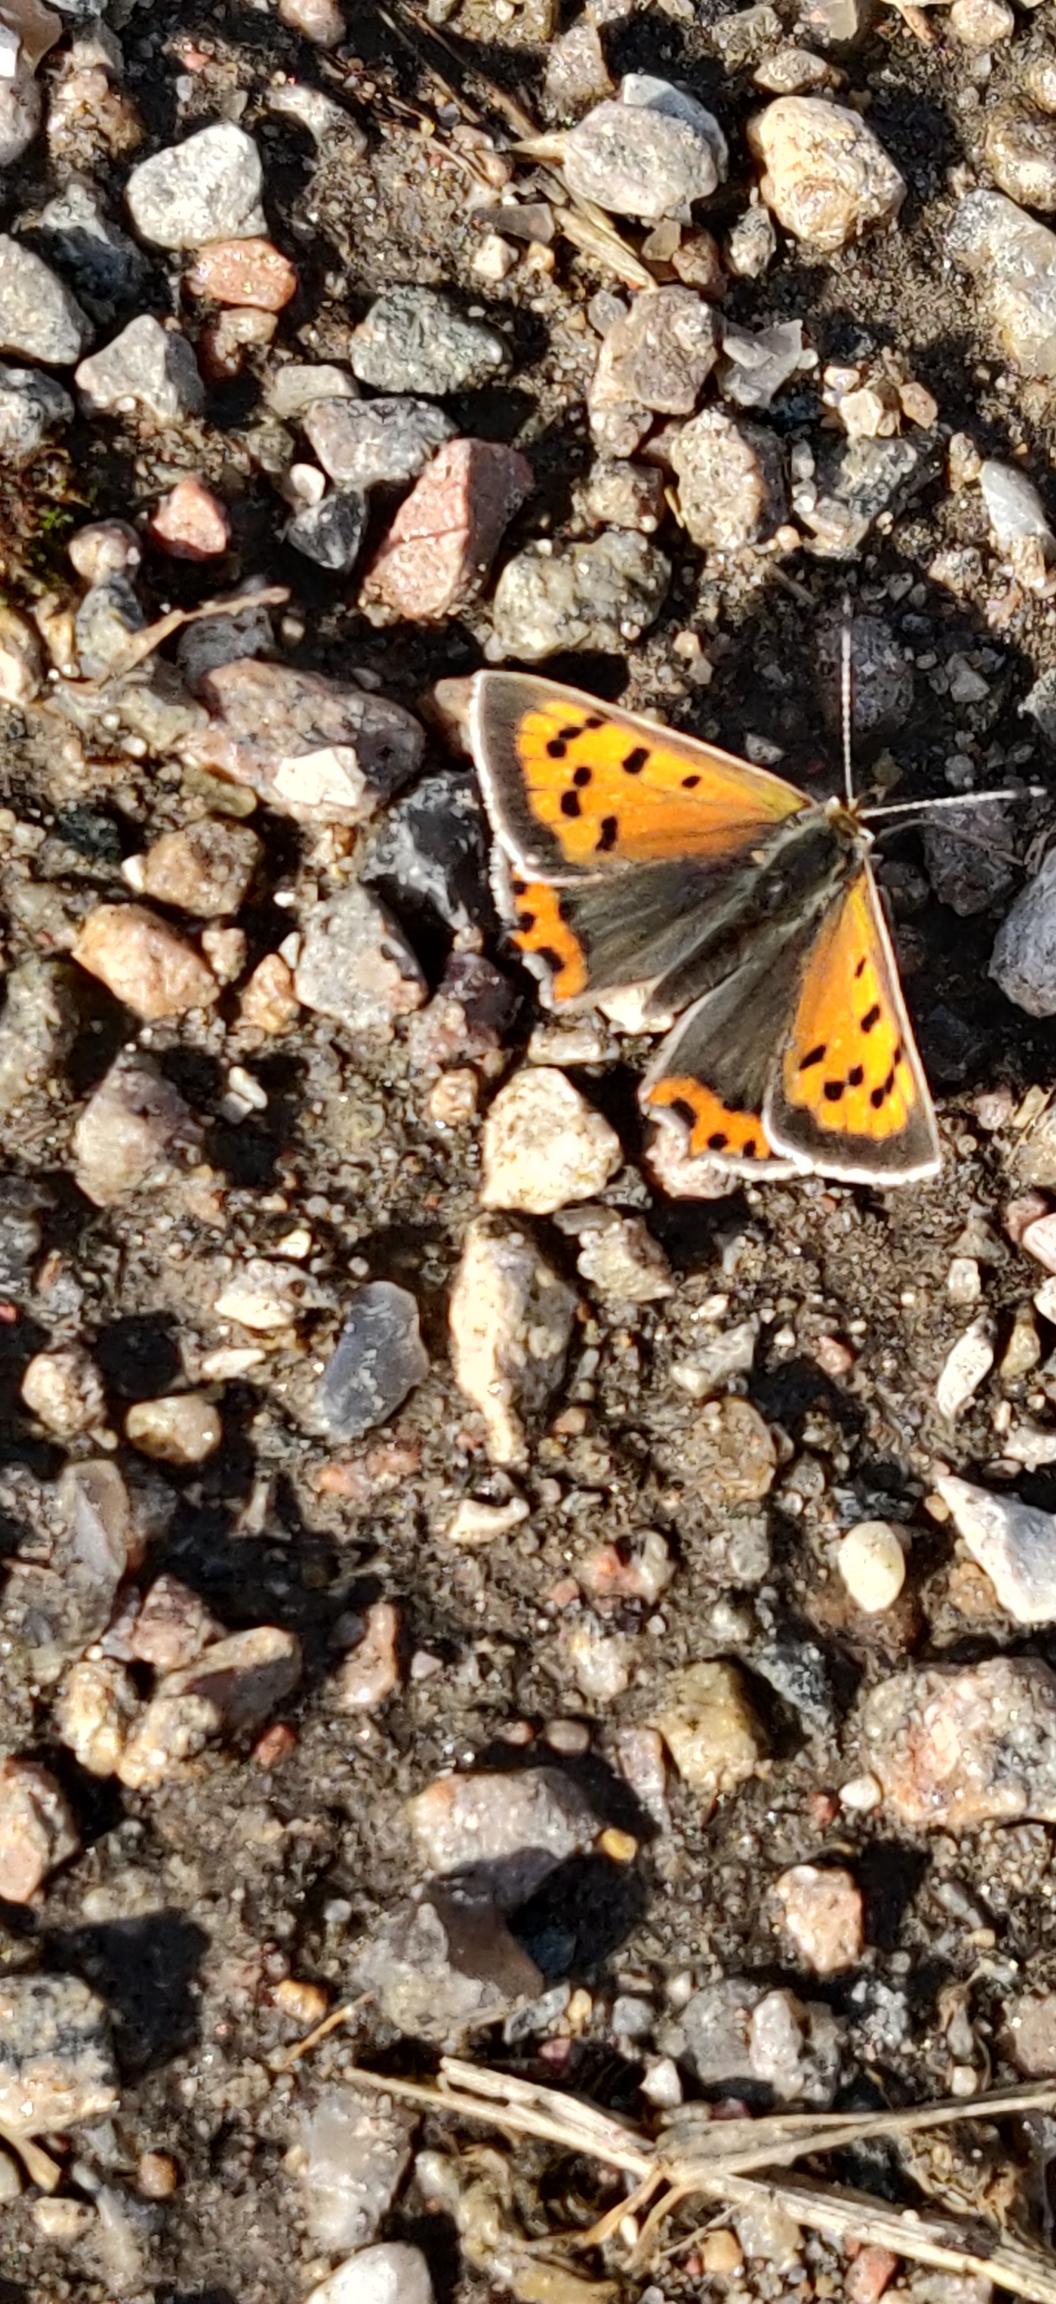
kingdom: Animalia
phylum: Arthropoda
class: Insecta
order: Lepidoptera
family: Lycaenidae
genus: Lycaena
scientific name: Lycaena phlaeas
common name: Lille ildfugl
